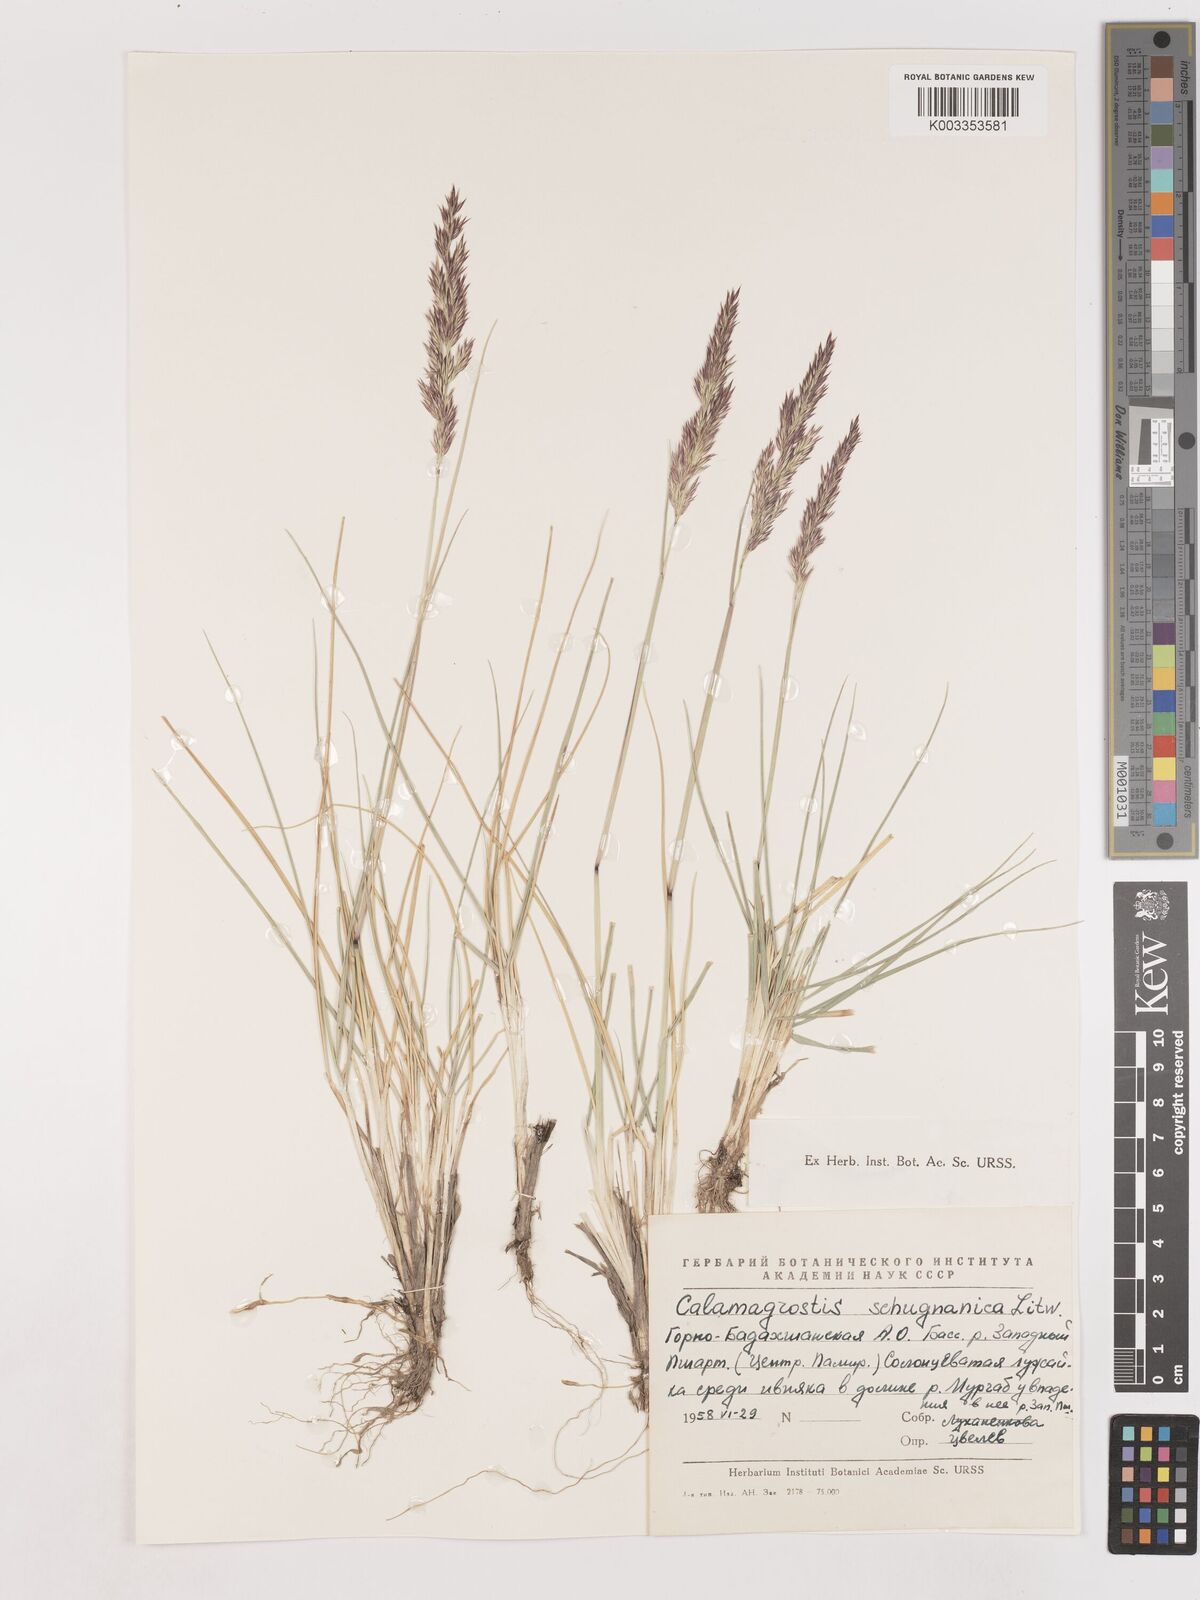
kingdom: Plantae
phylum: Tracheophyta
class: Liliopsida
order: Poales
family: Poaceae
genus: Calamagrostis
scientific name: Calamagrostis
